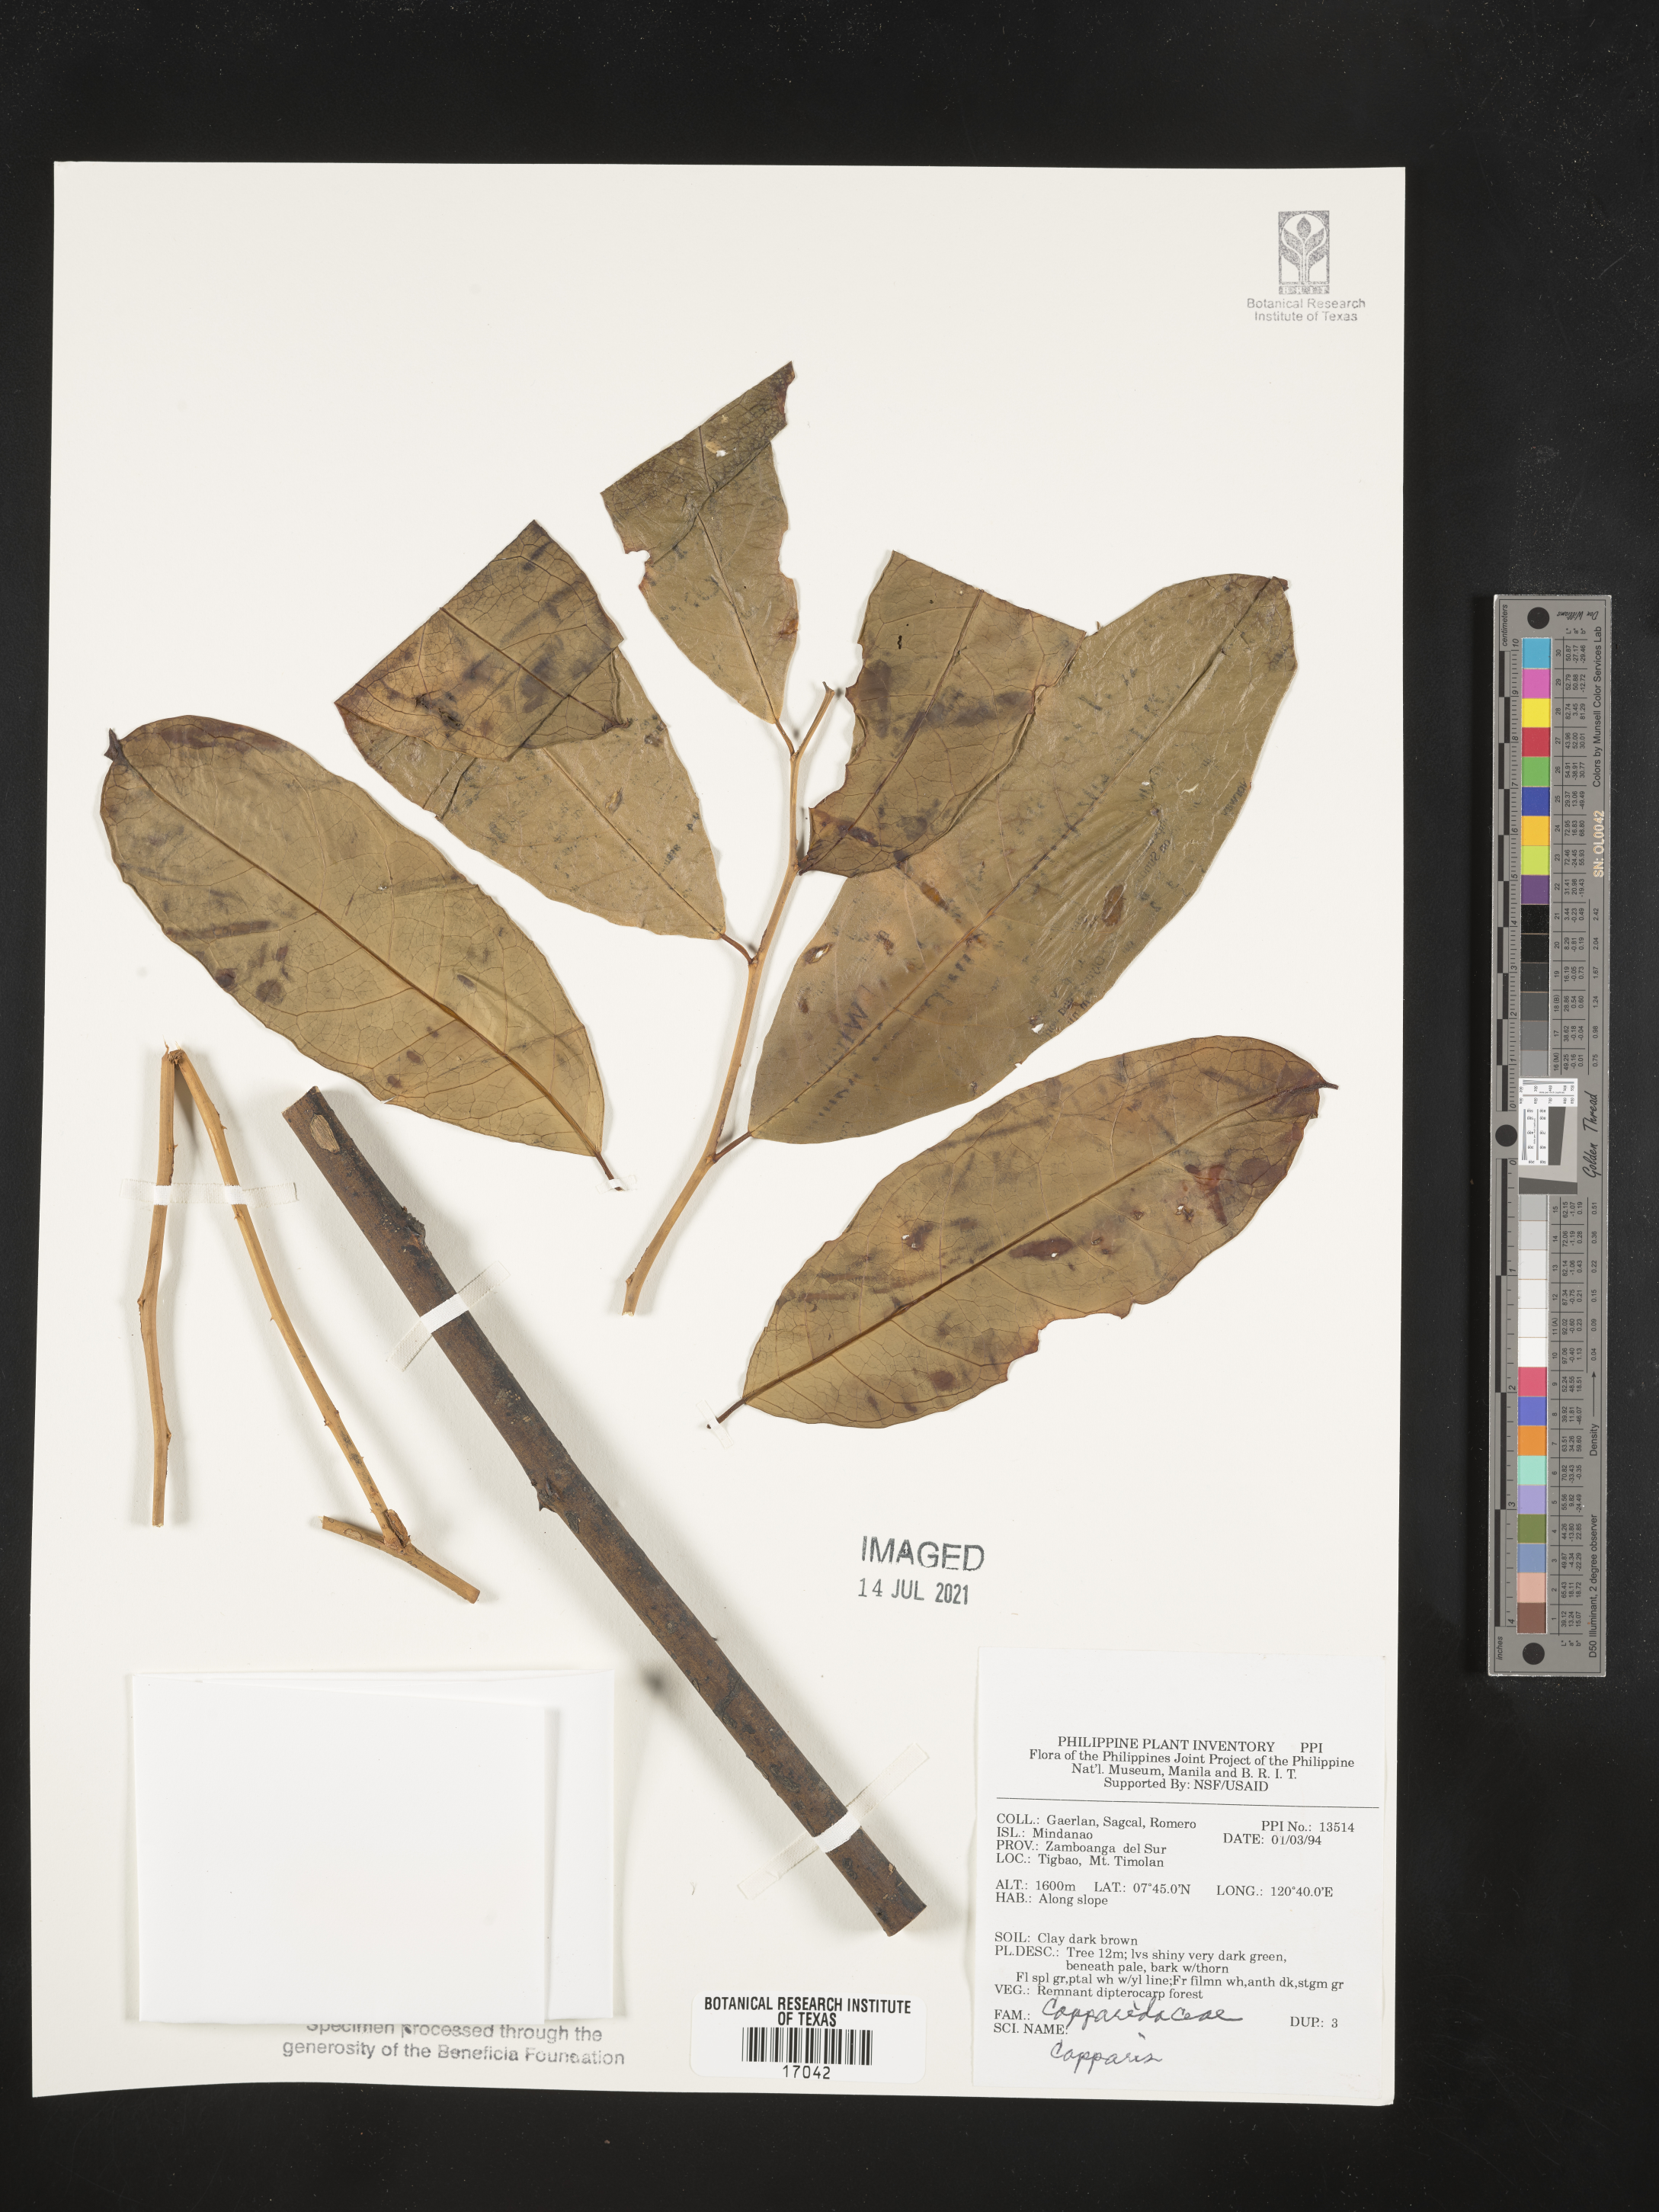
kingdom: Plantae
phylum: Tracheophyta
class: Magnoliopsida
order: Brassicales
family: Capparaceae
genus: Capparis
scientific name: Capparis
